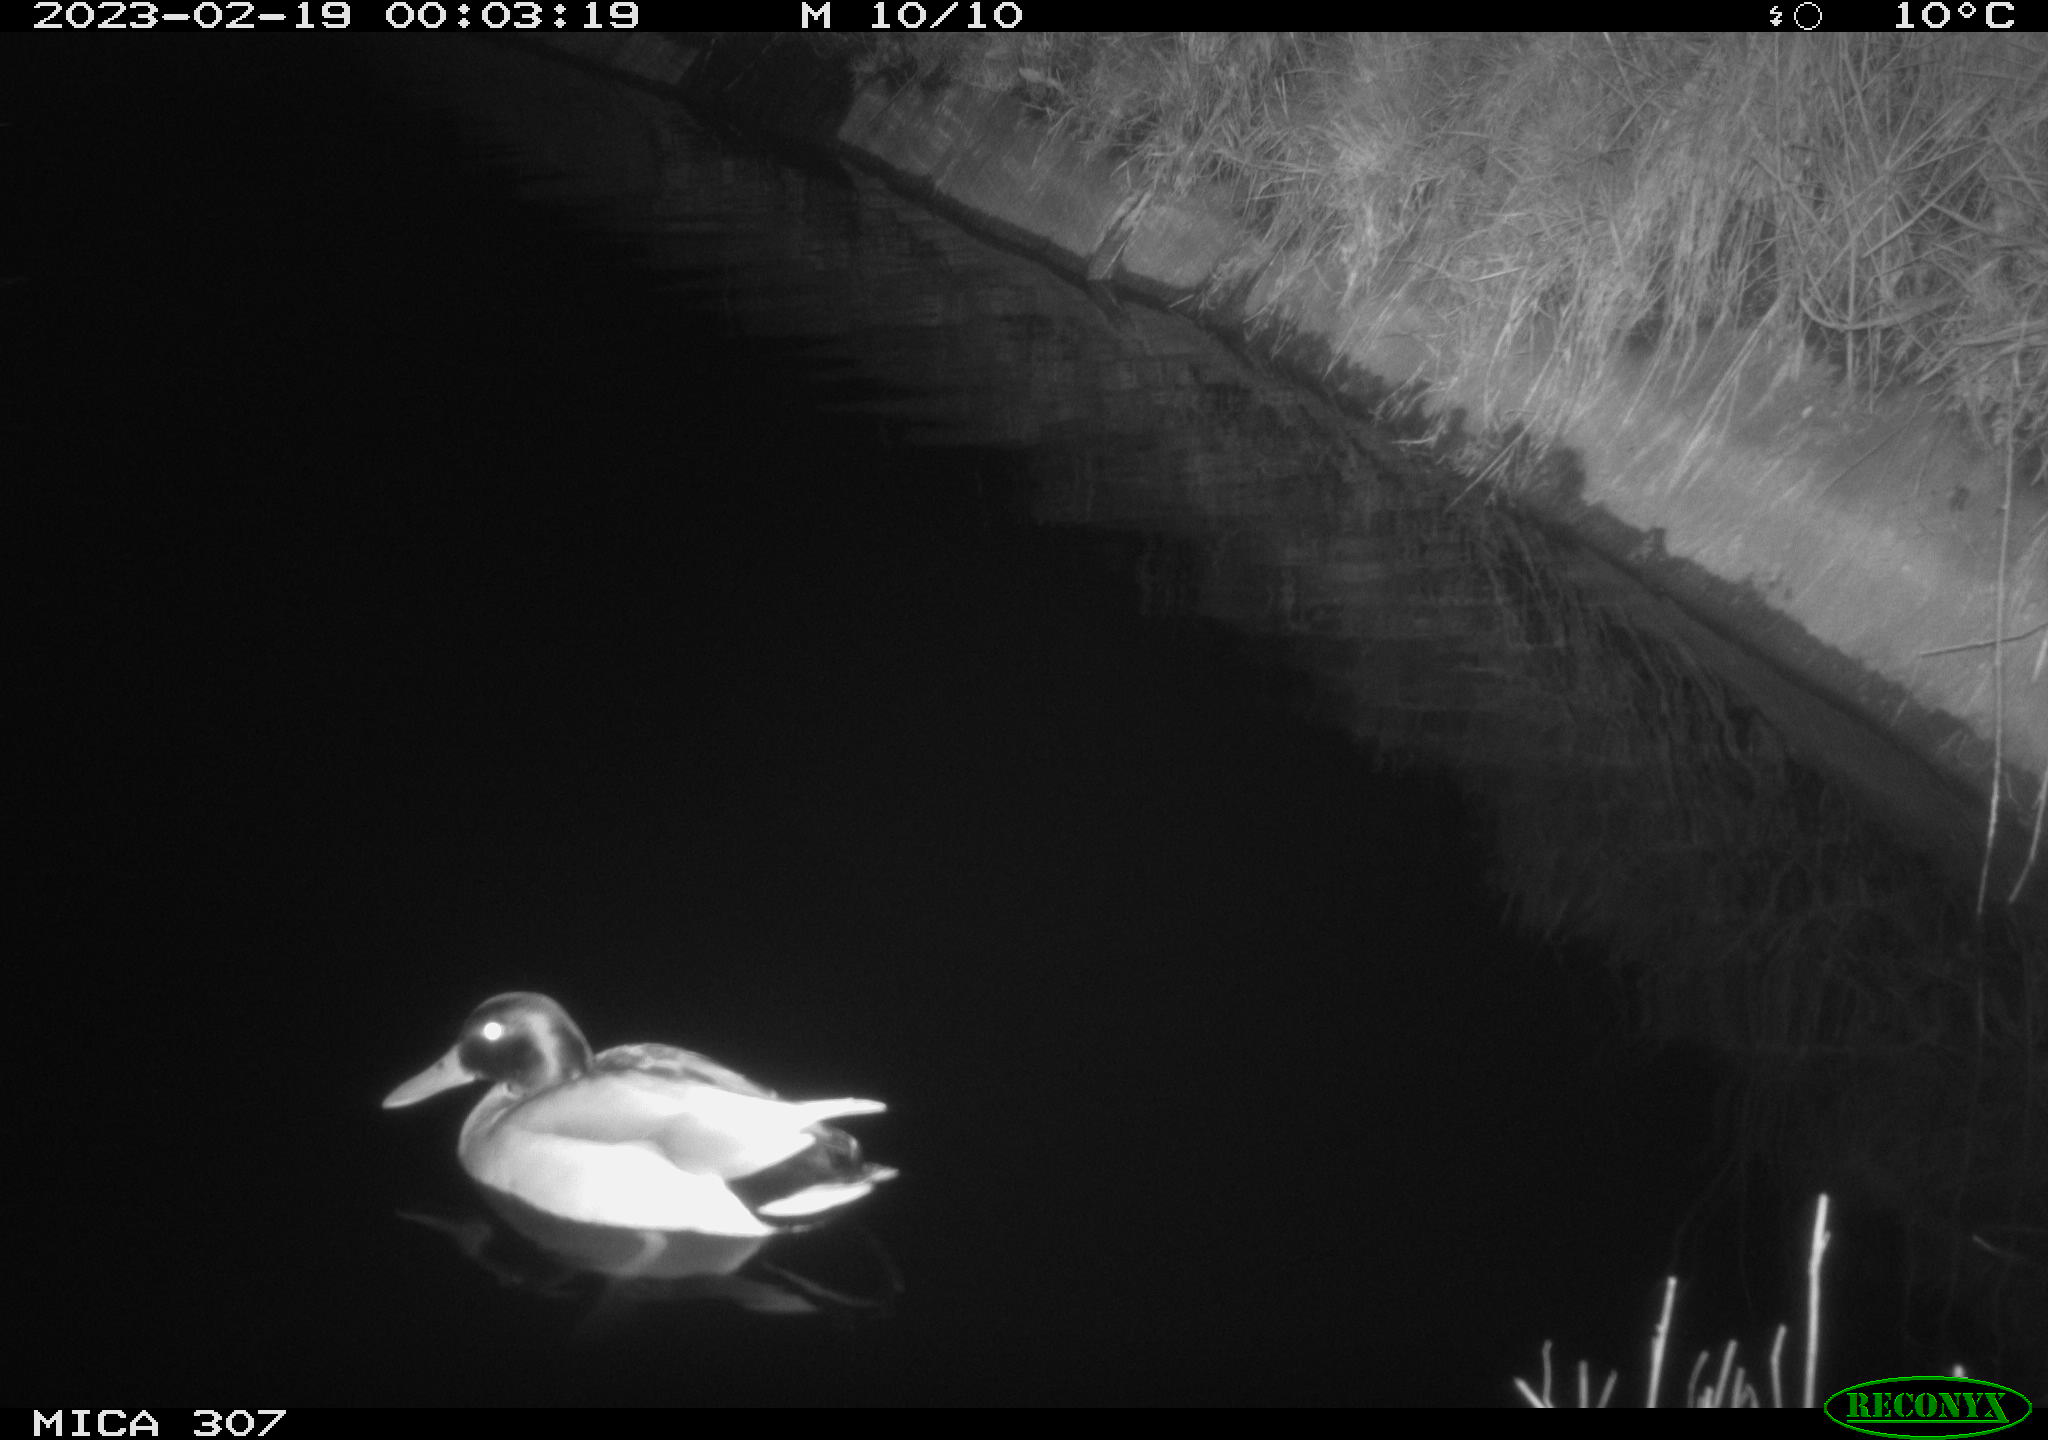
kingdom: Animalia
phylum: Chordata
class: Aves
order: Anseriformes
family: Anatidae
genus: Anas
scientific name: Anas
